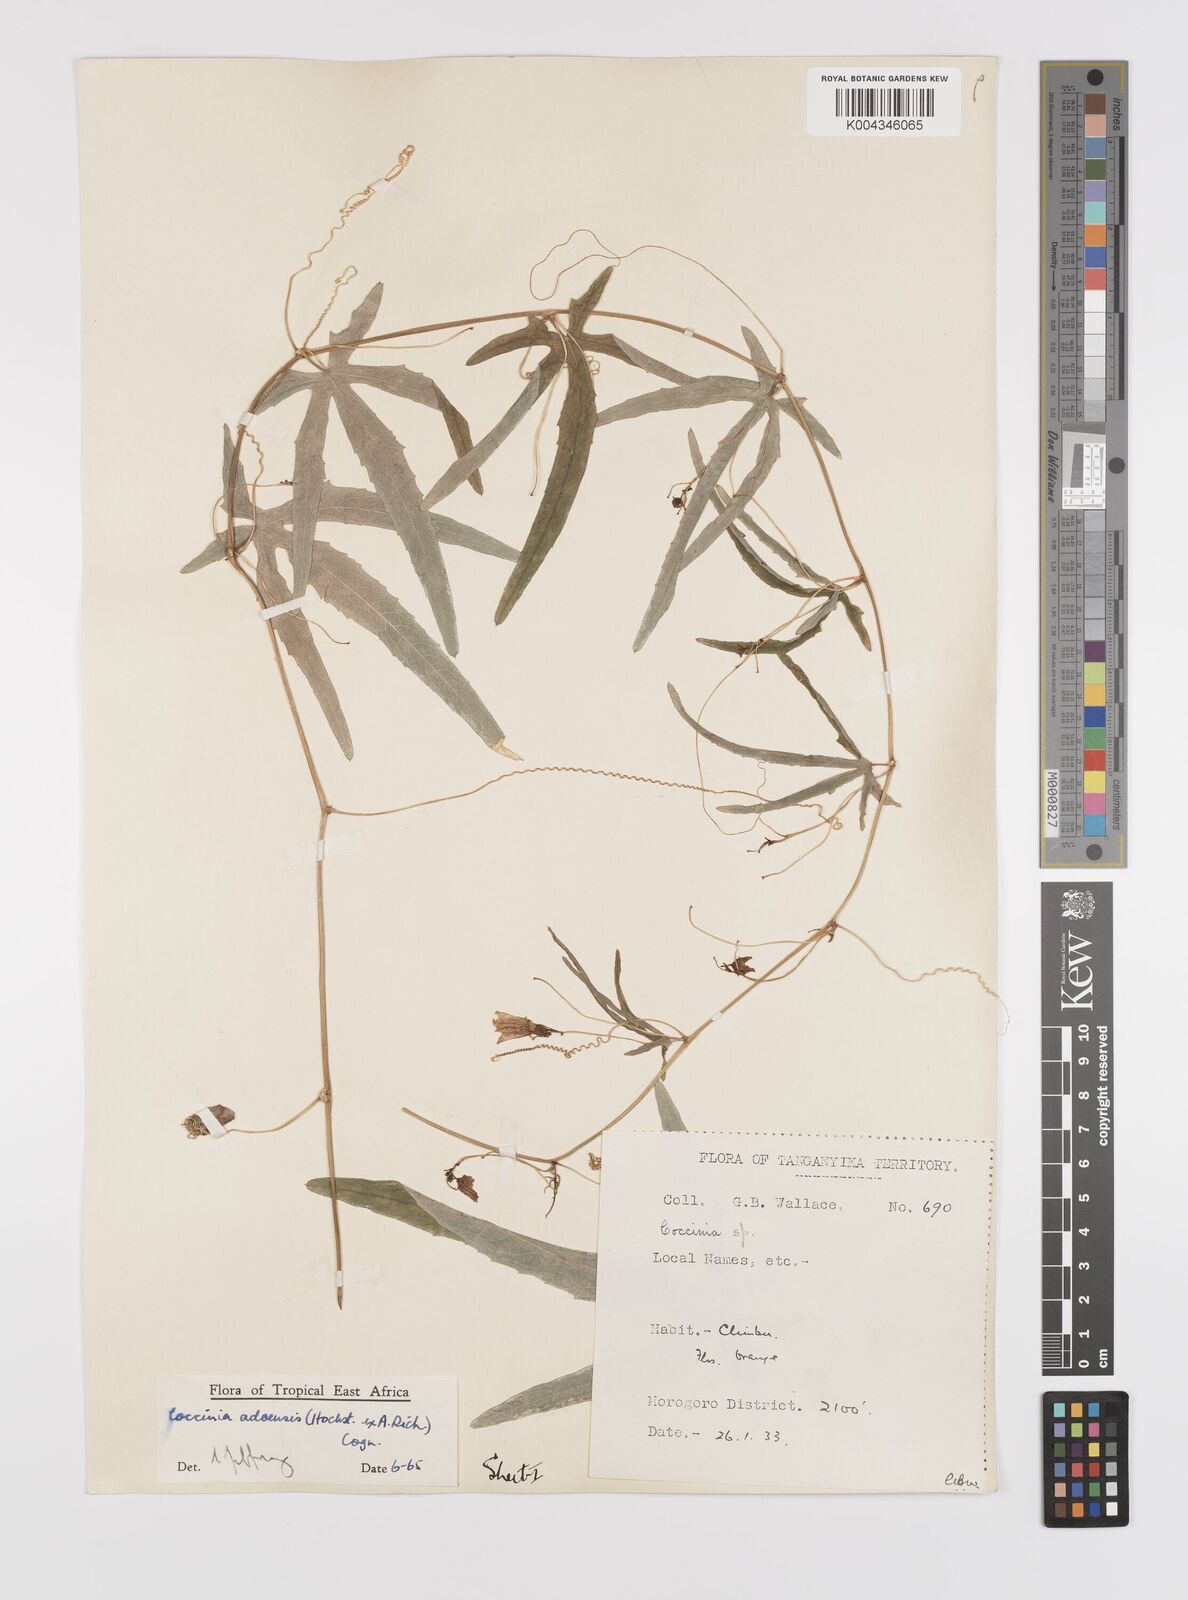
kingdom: Plantae
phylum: Tracheophyta
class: Magnoliopsida
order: Cucurbitales
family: Cucurbitaceae
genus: Coccinia
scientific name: Coccinia adoensis
